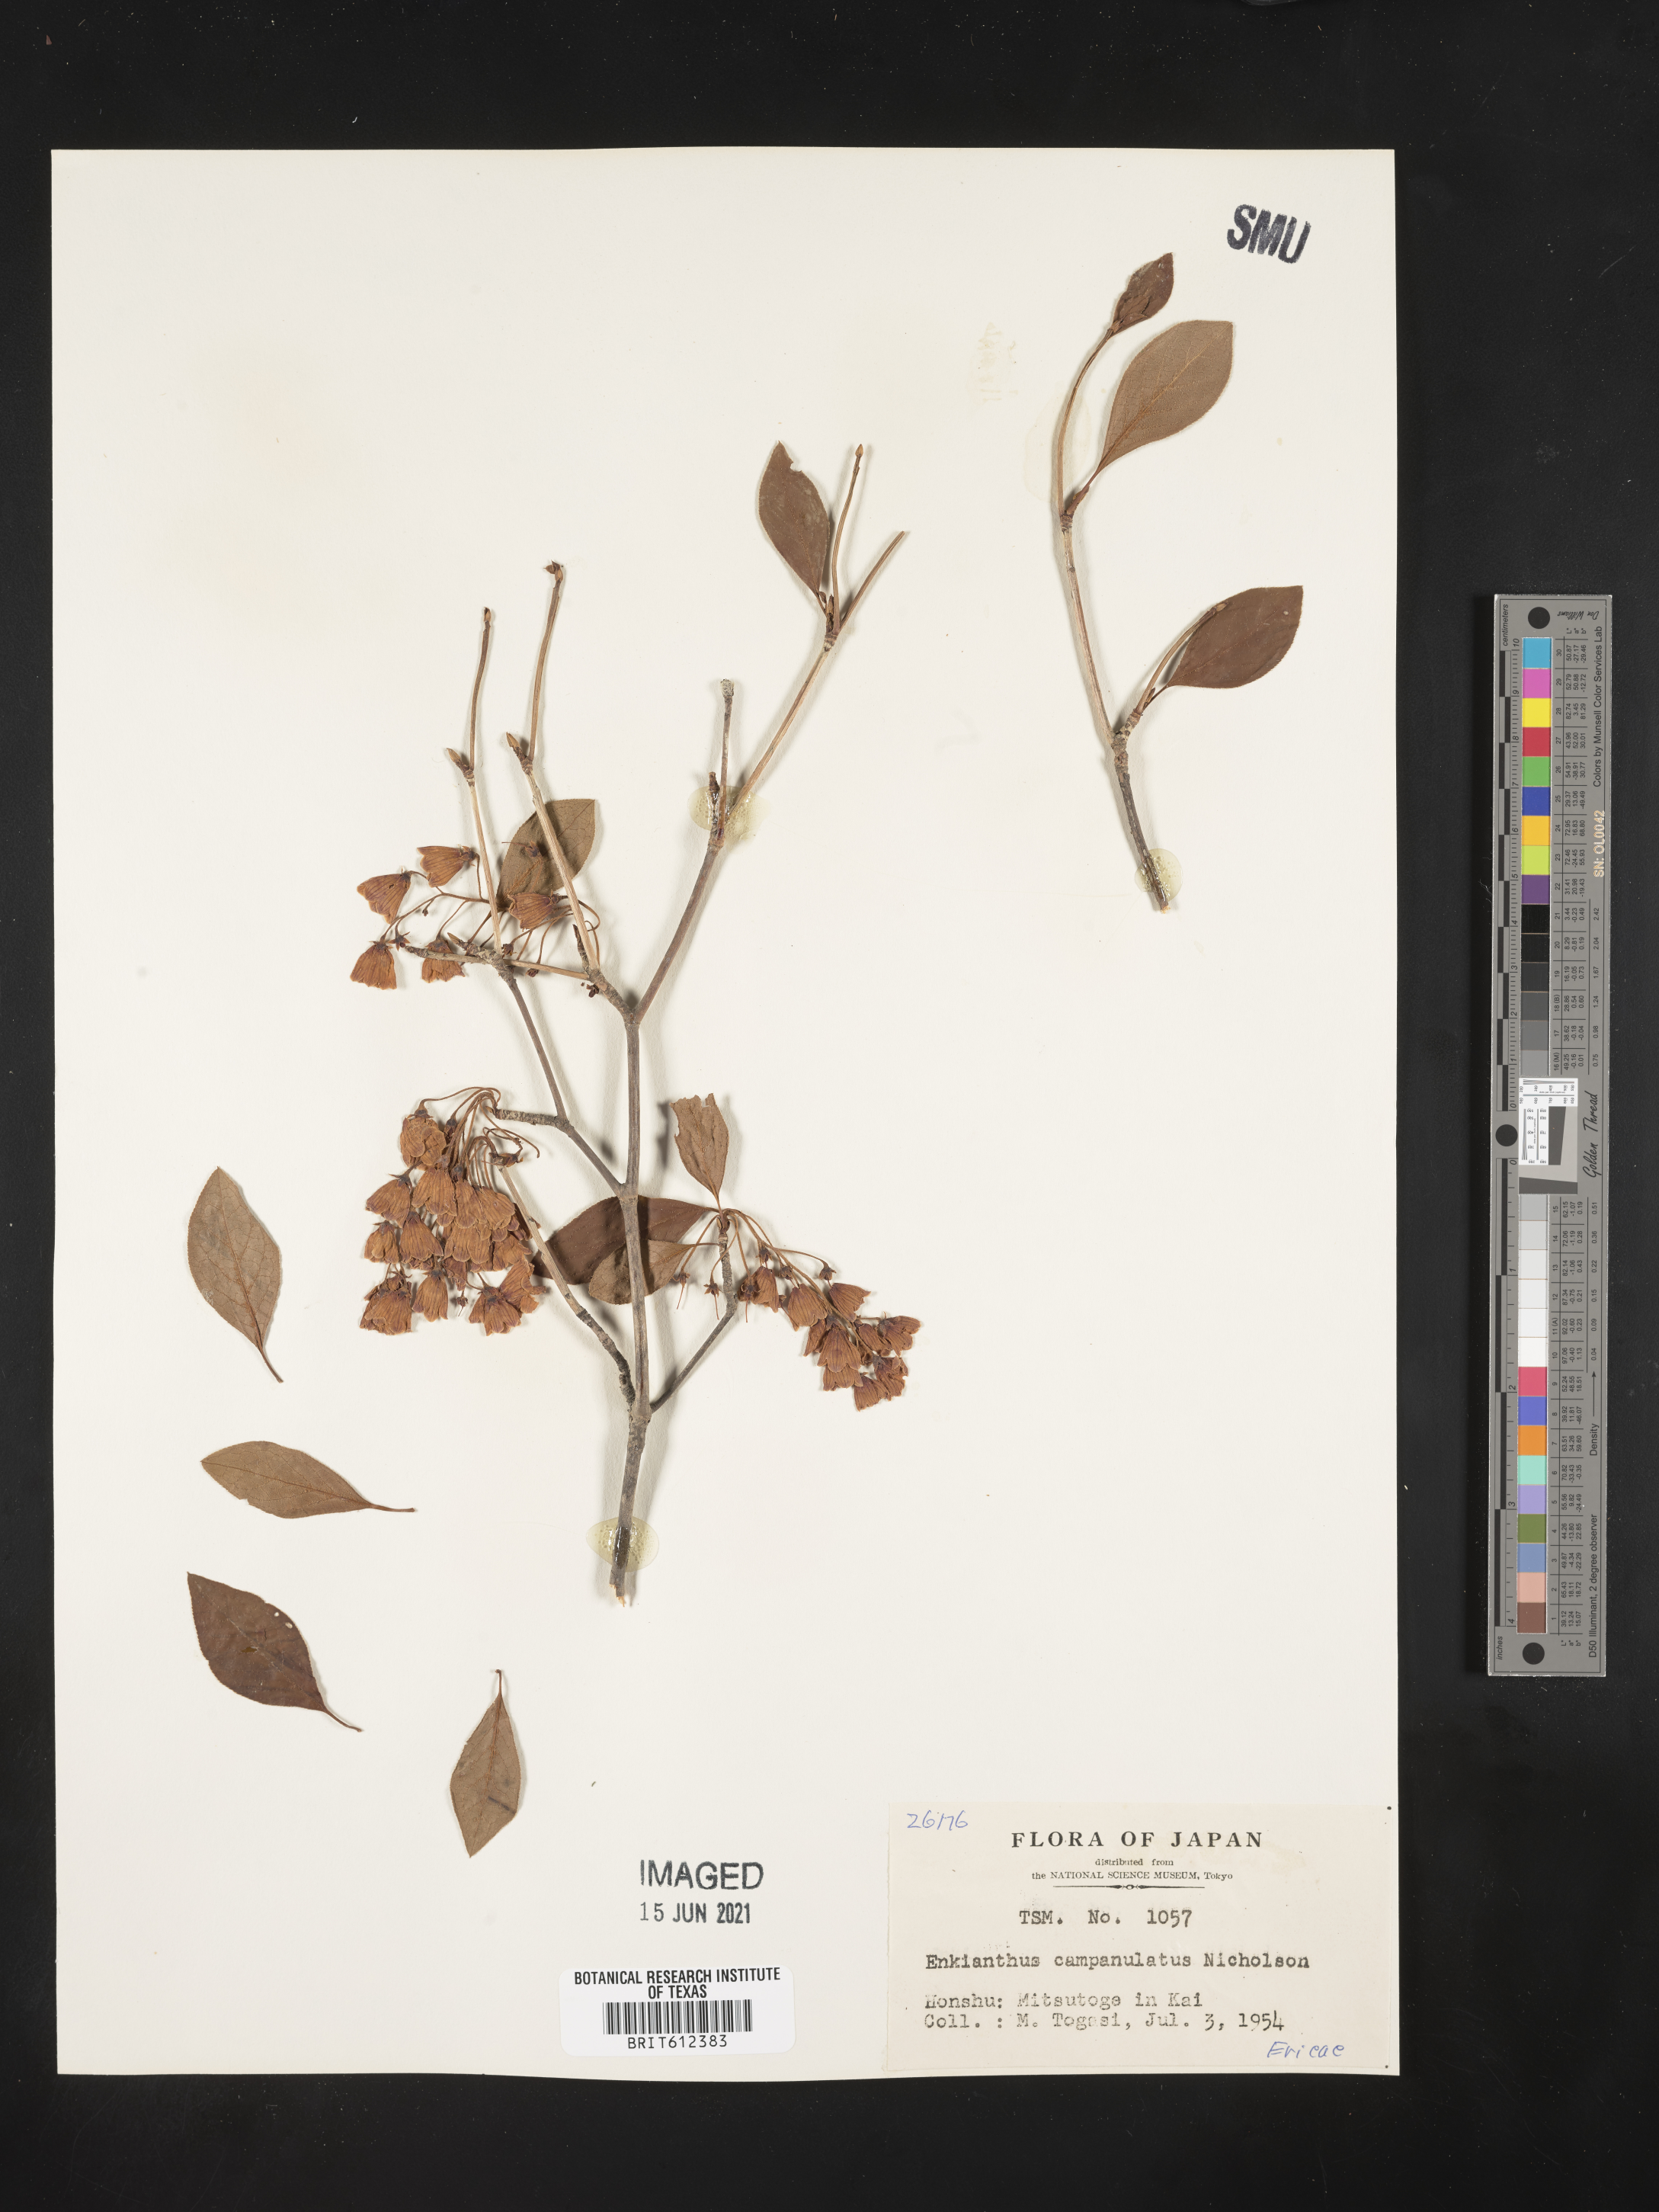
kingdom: Plantae
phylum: Tracheophyta
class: Magnoliopsida
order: Ericales
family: Ericaceae
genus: Enkianthus
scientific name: Enkianthus campanulatus
